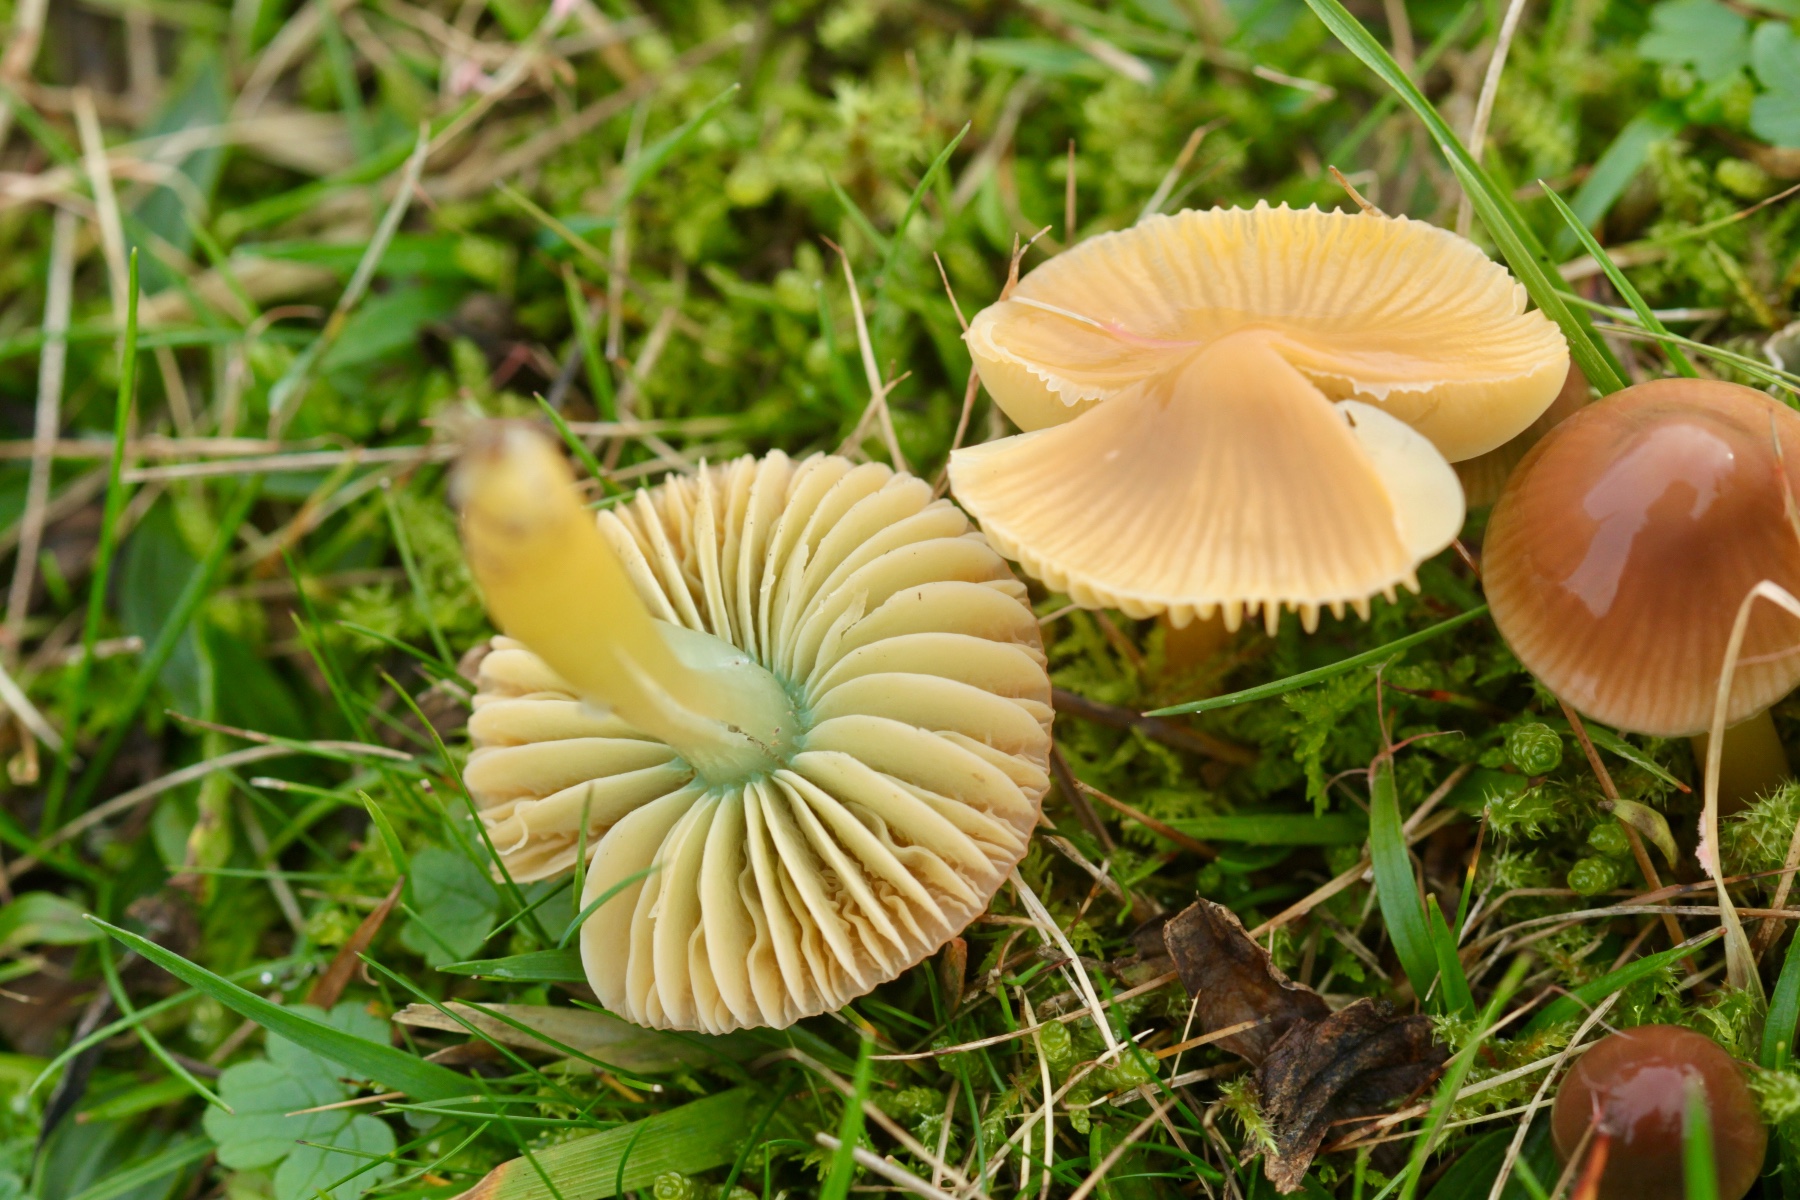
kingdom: Fungi
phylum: Basidiomycota
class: Agaricomycetes
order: Agaricales
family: Hygrophoraceae
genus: Gliophorus
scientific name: Gliophorus psittacinus
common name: papegøje-vokshat
